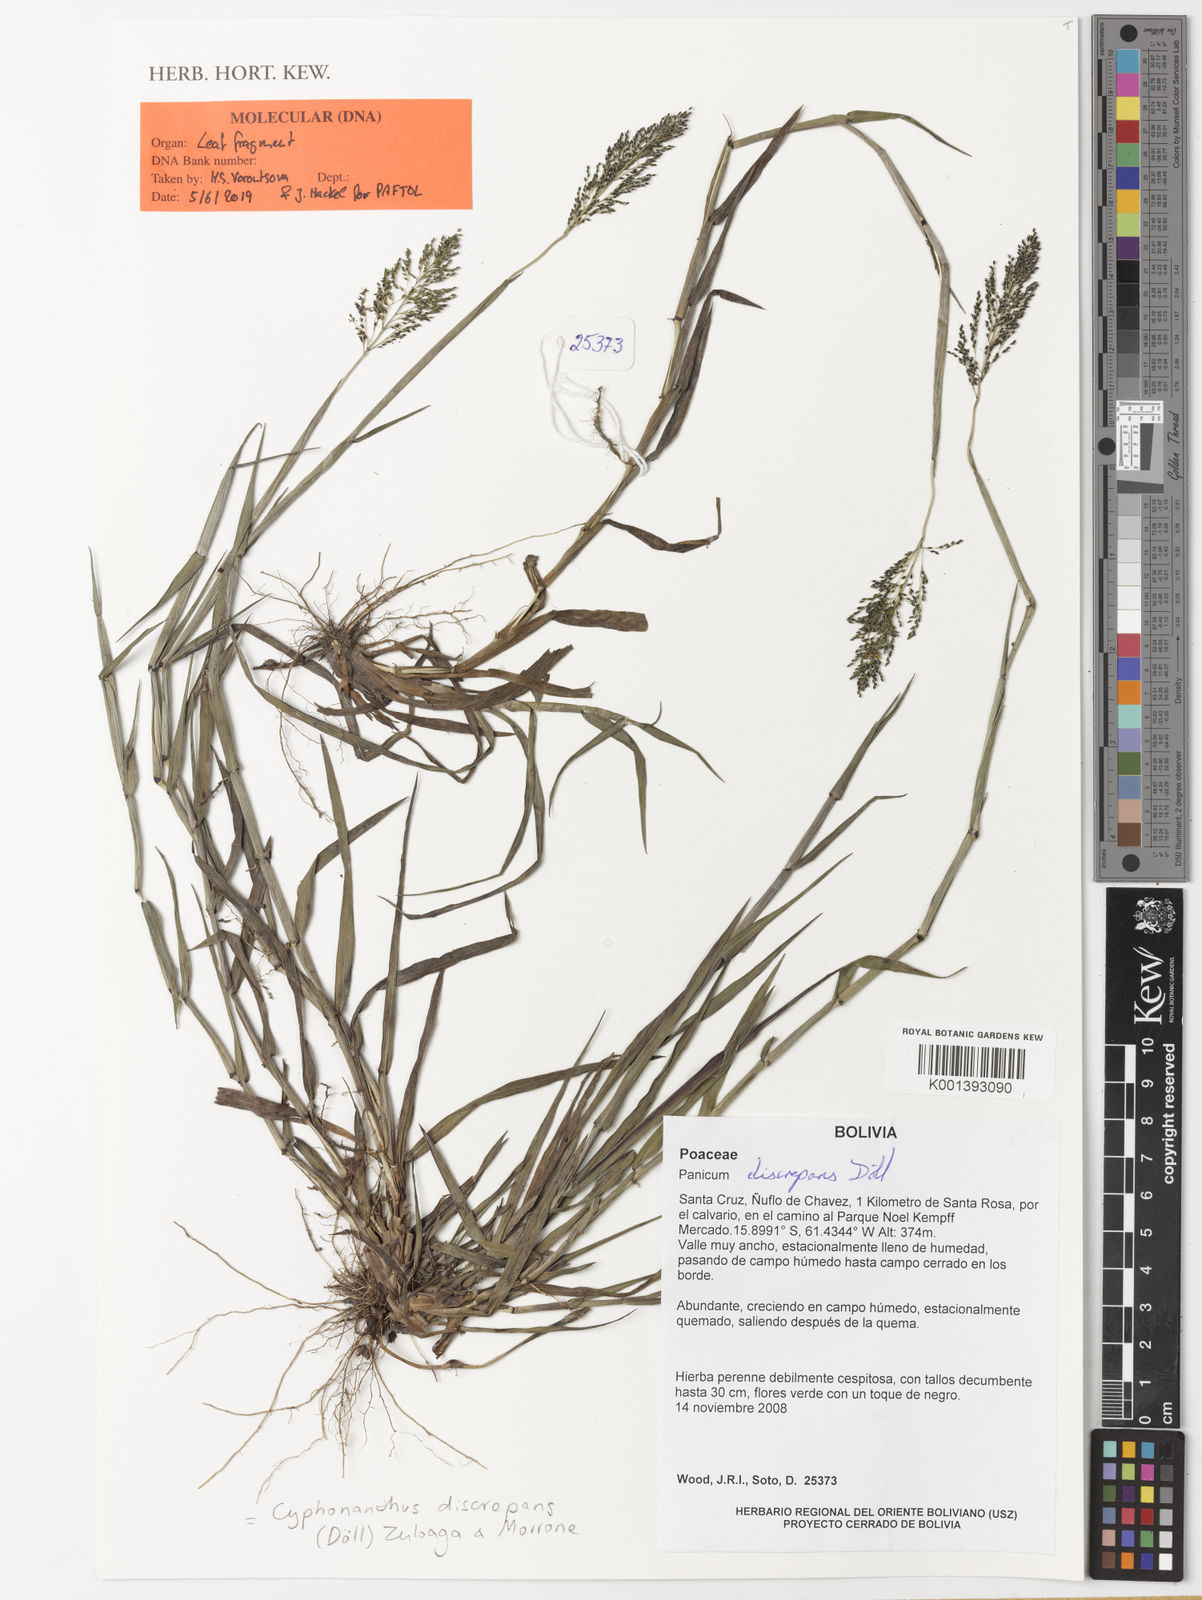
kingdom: Plantae
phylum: Tracheophyta
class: Liliopsida
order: Poales
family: Poaceae
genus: Cyphonanthus
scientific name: Cyphonanthus
